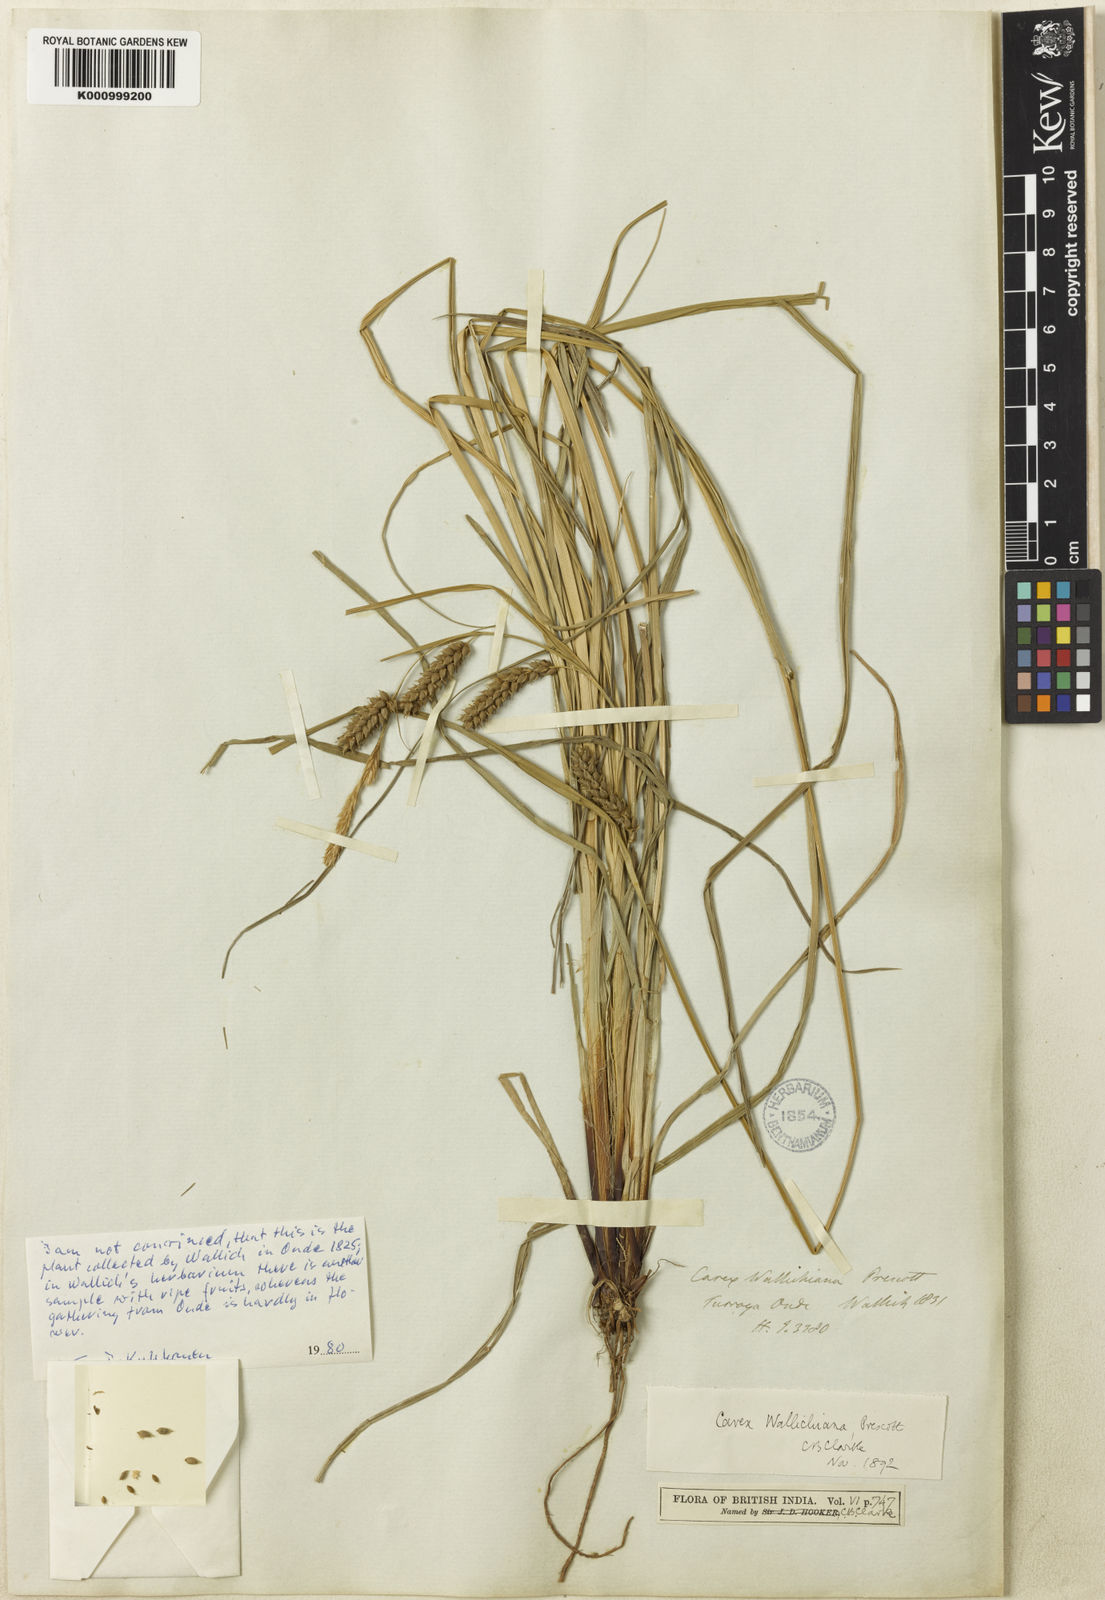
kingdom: Plantae
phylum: Tracheophyta
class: Liliopsida
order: Poales
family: Cyperaceae
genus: Carex
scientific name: Carex
